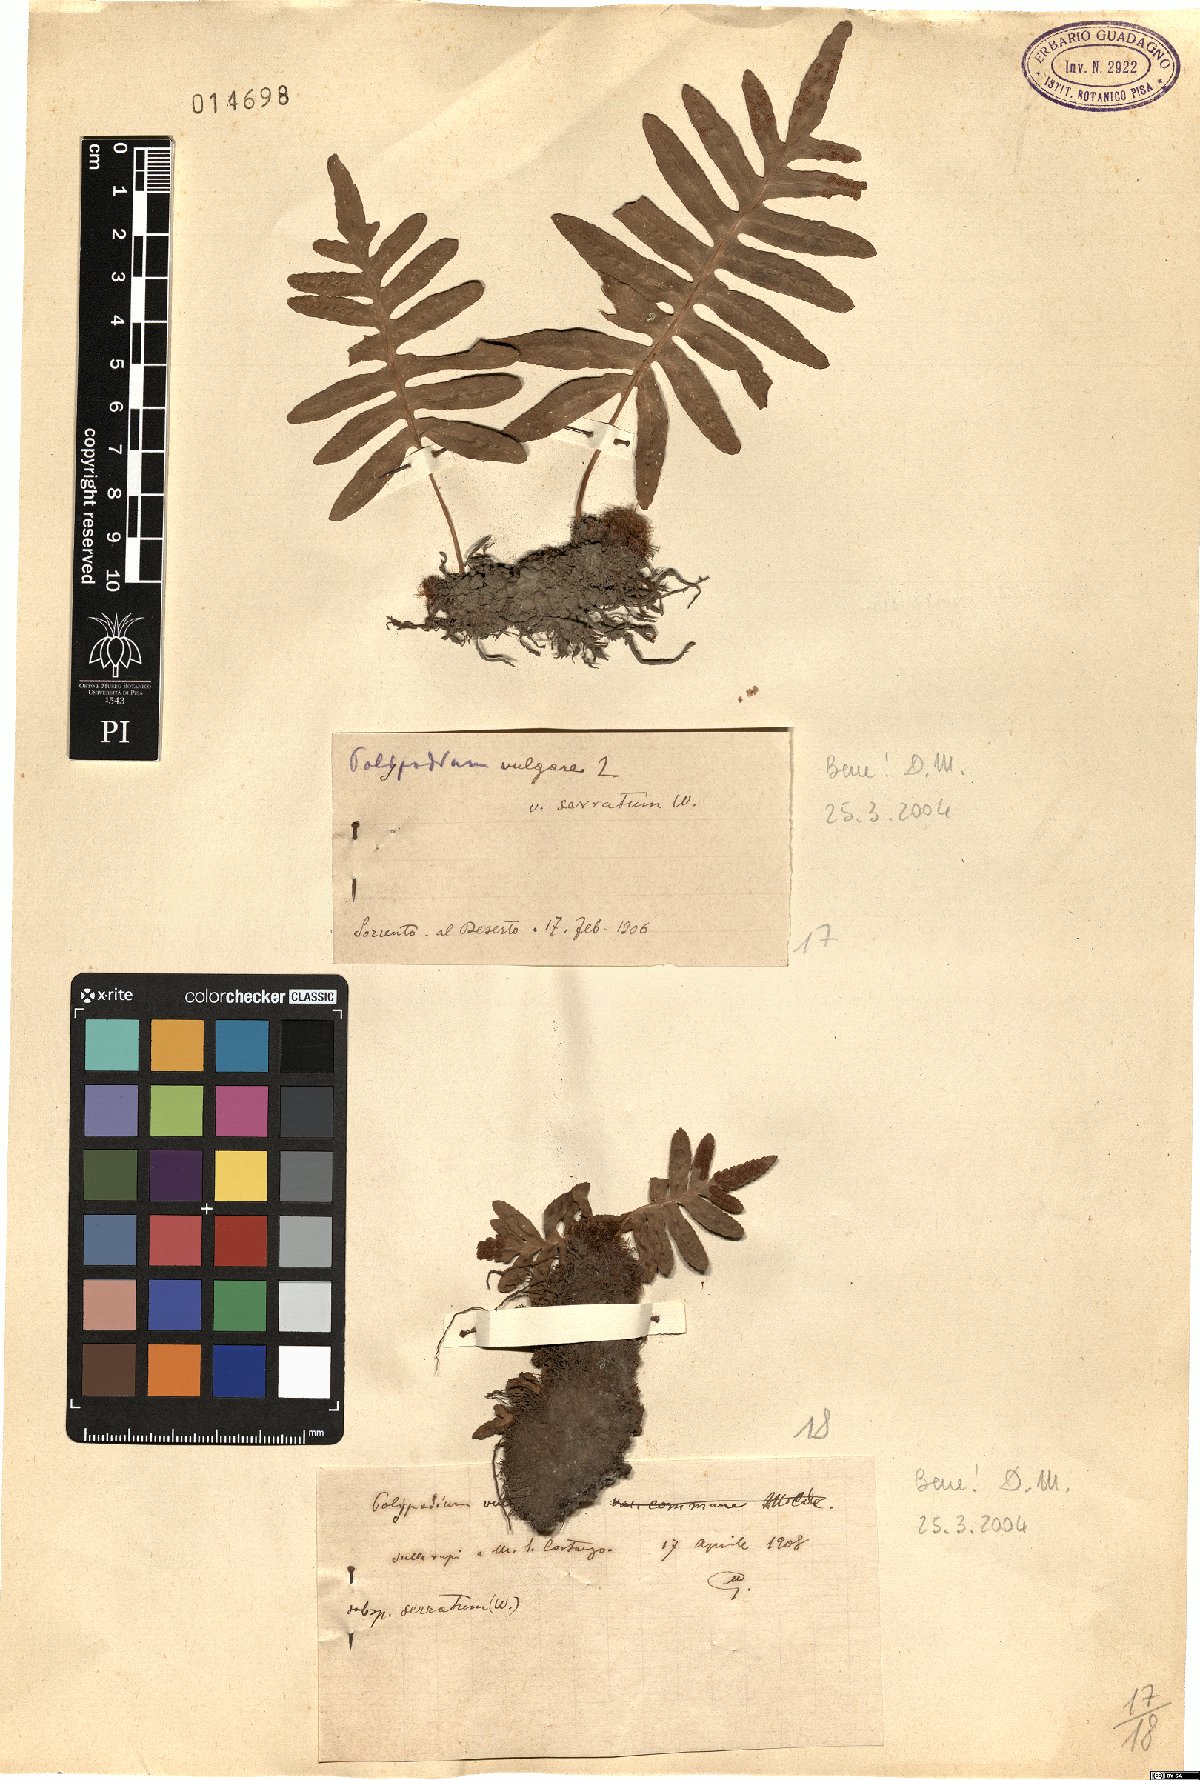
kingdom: Plantae
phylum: Tracheophyta
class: Polypodiopsida
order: Polypodiales
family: Polypodiaceae
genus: Polypodium
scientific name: Polypodium cambricum
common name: Southern polypody
